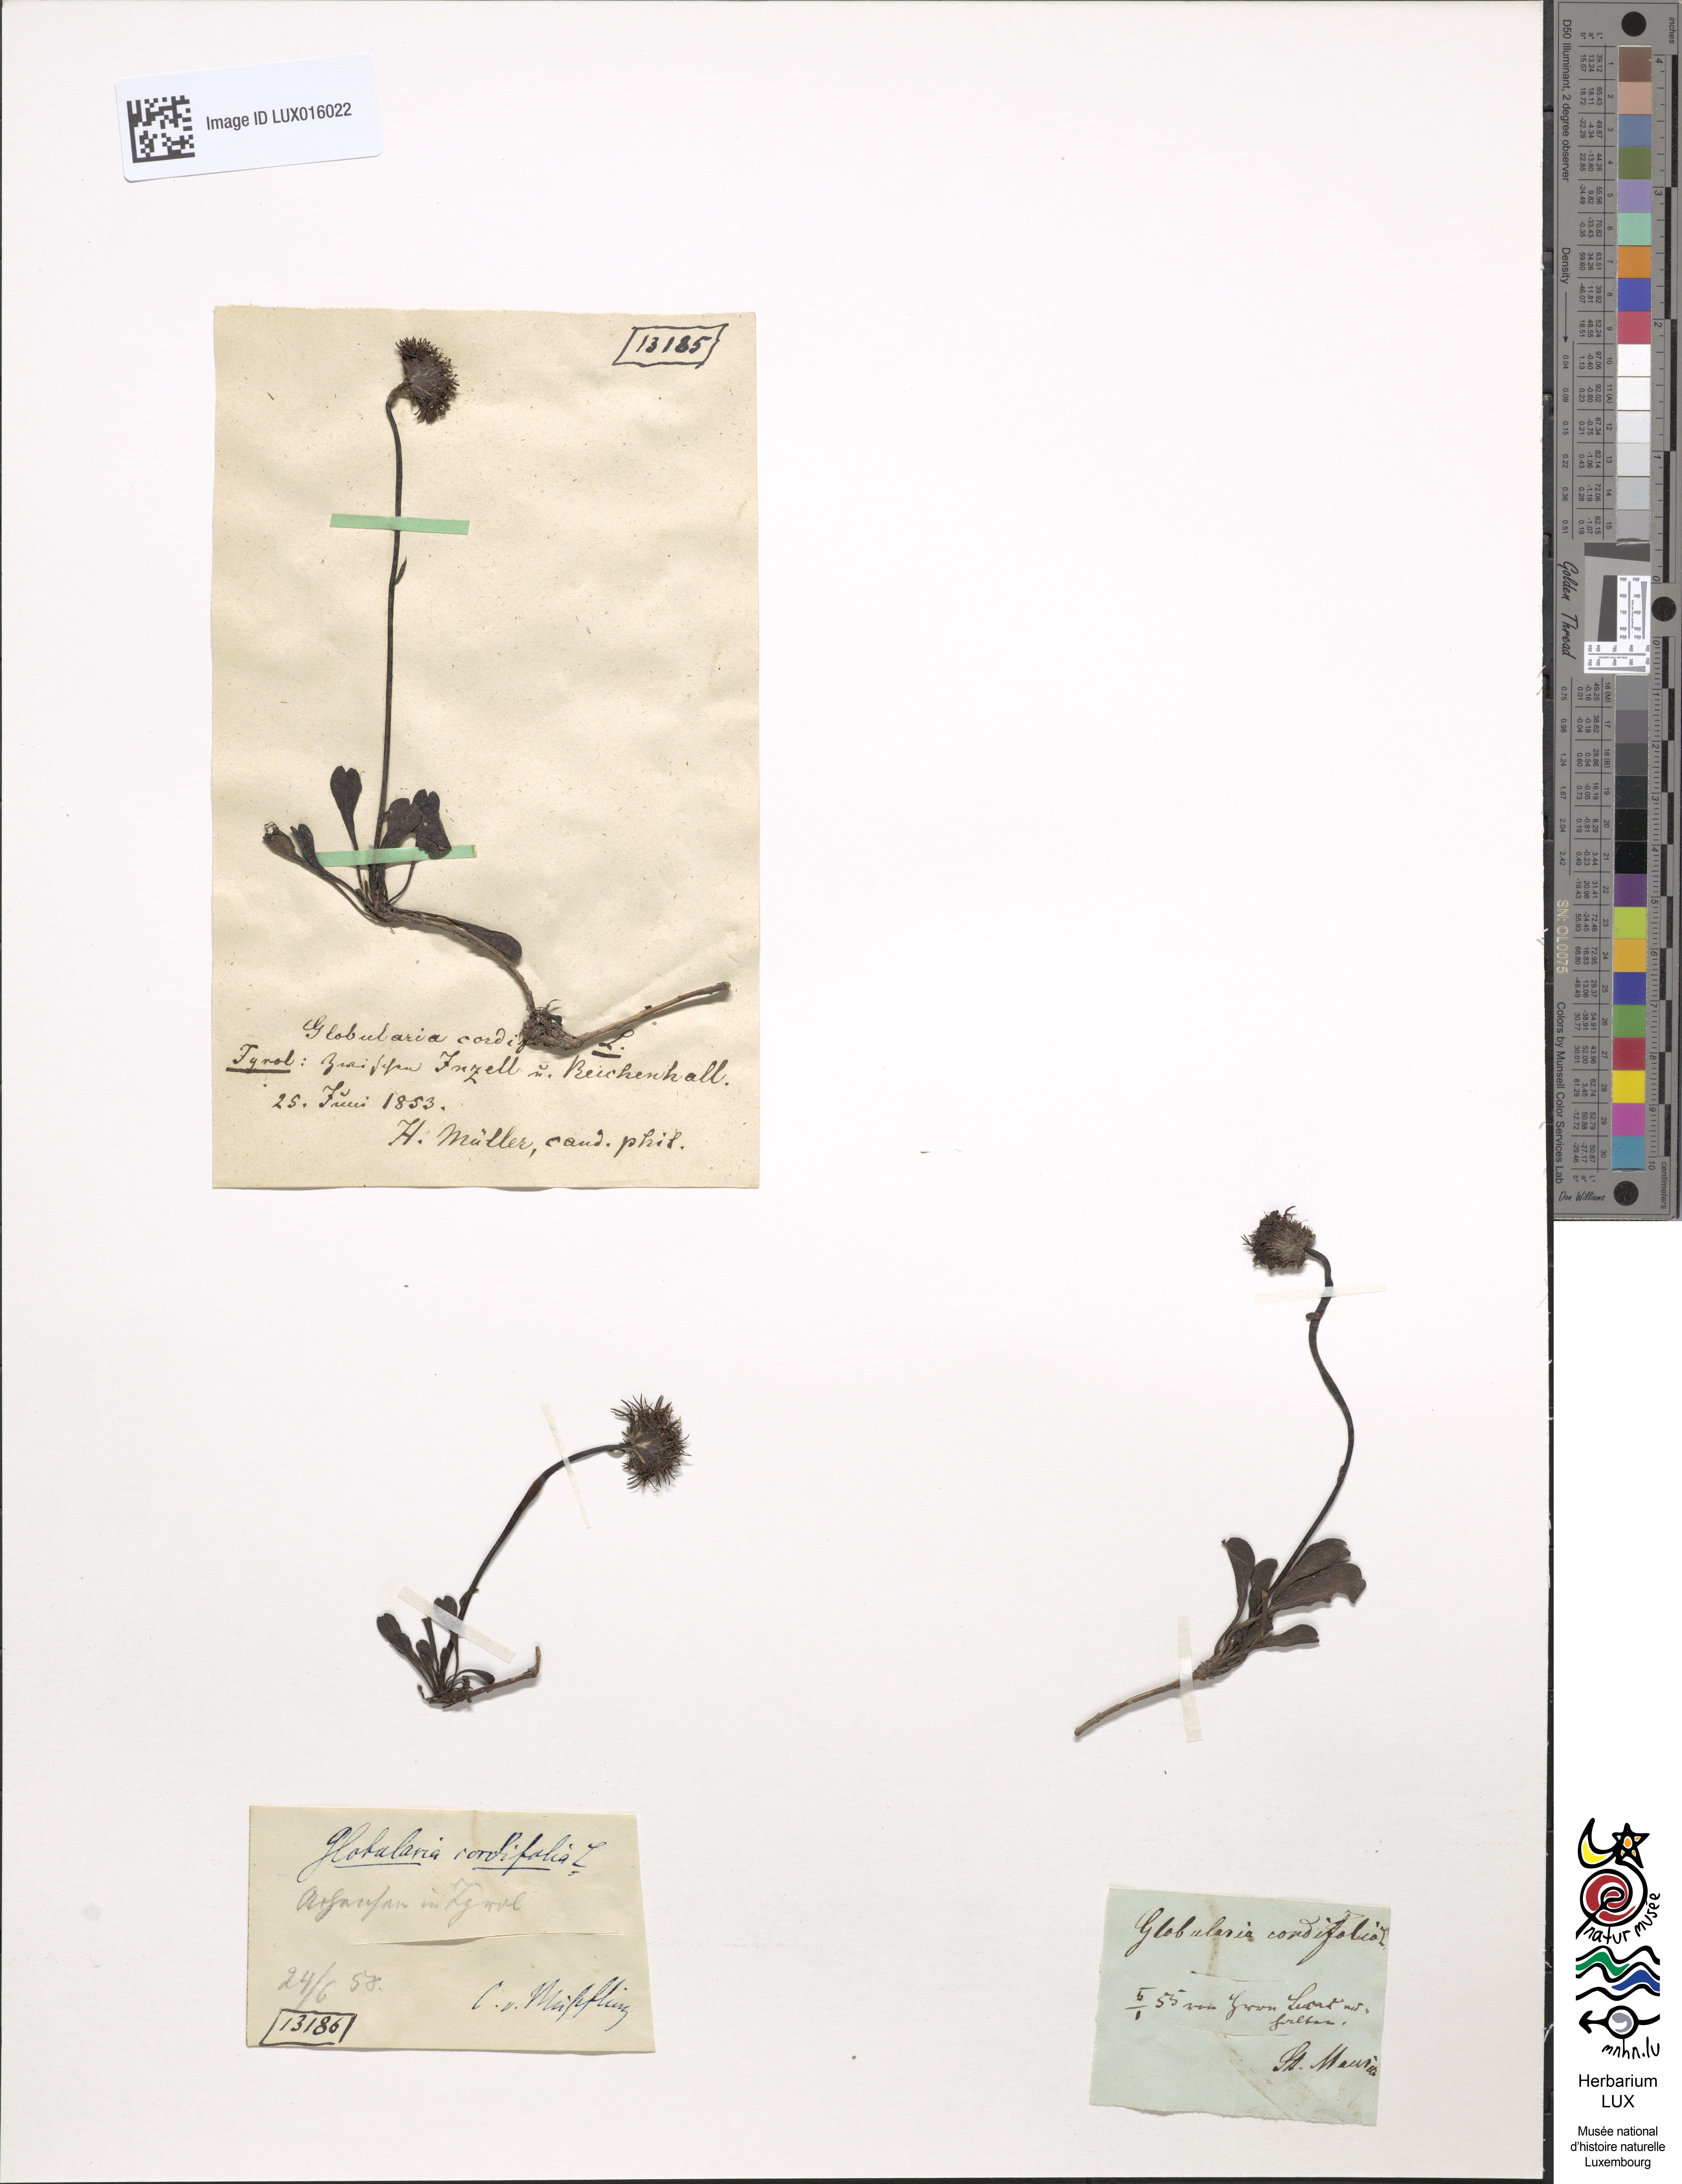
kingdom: Plantae
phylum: Tracheophyta
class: Magnoliopsida
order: Lamiales
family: Plantaginaceae
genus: Globularia
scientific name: Globularia cordifolia
